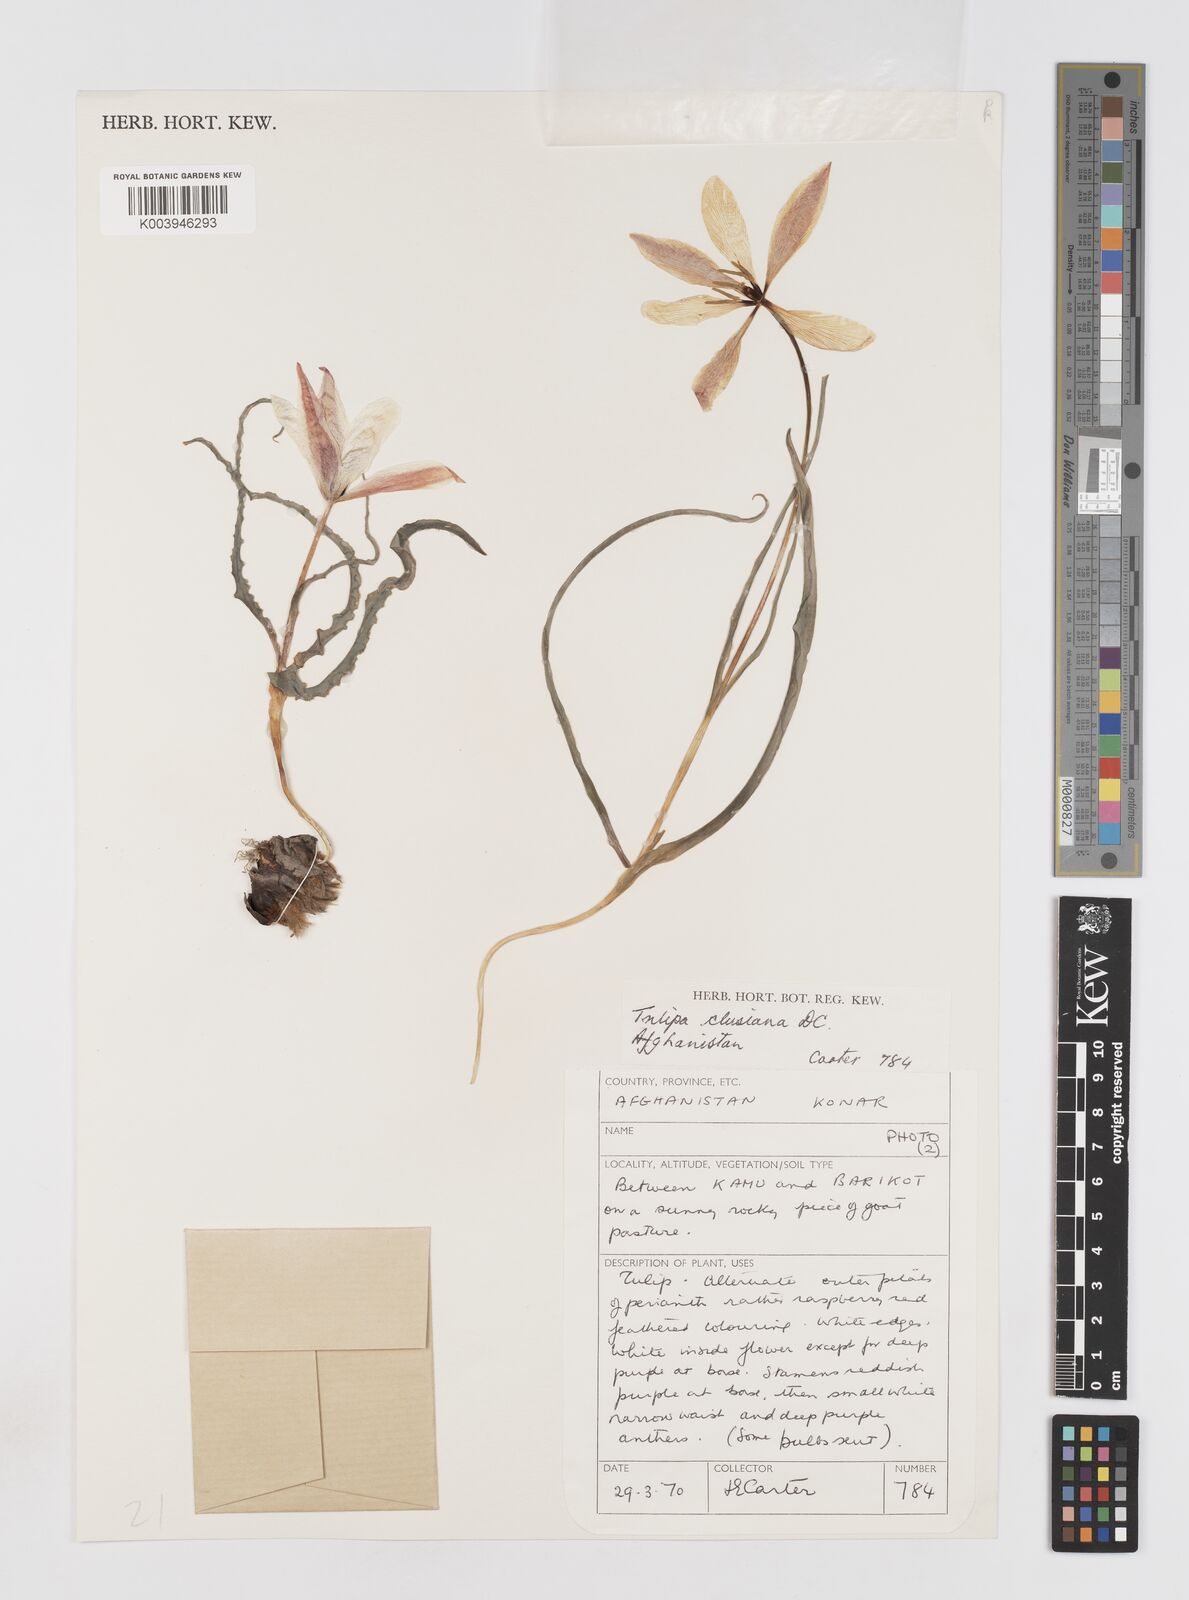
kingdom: Plantae
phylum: Tracheophyta
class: Liliopsida
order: Liliales
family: Liliaceae
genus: Tulipa
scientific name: Tulipa clusiana
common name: Lady tulip
